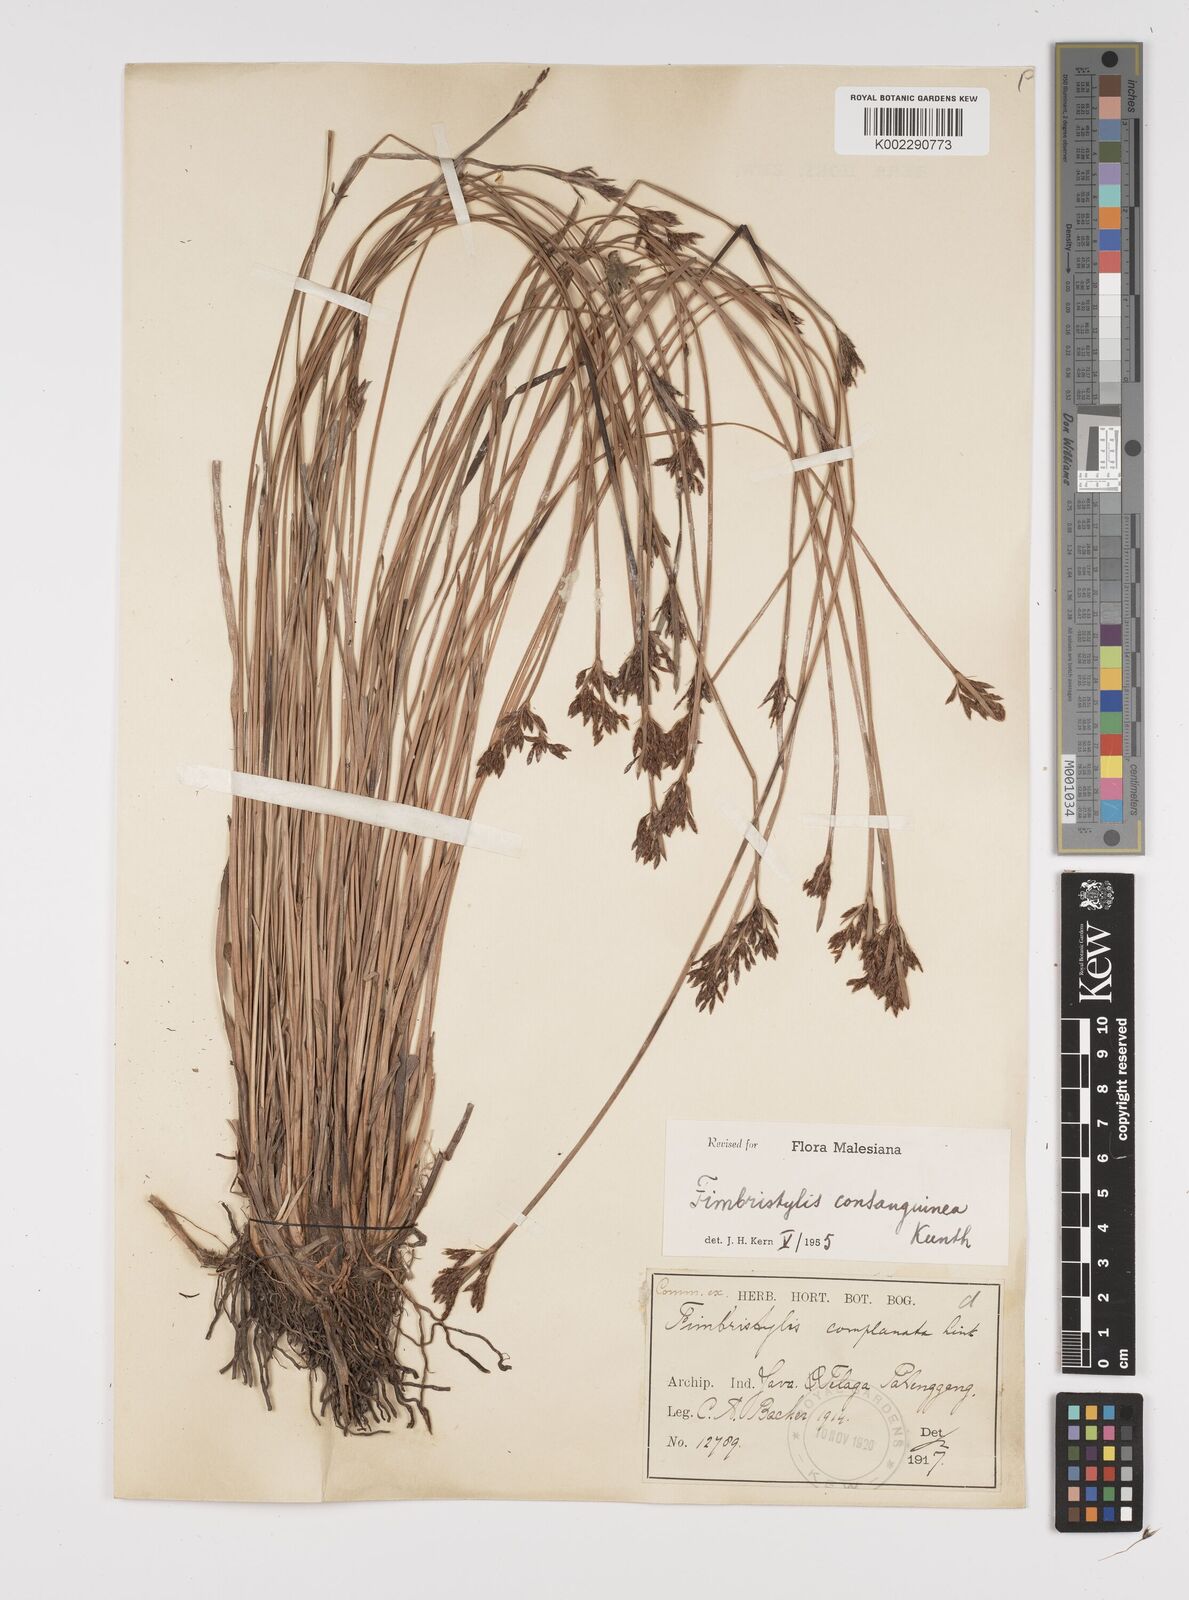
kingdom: Plantae
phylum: Tracheophyta
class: Liliopsida
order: Poales
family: Cyperaceae
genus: Fimbristylis
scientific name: Fimbristylis consanguinea
